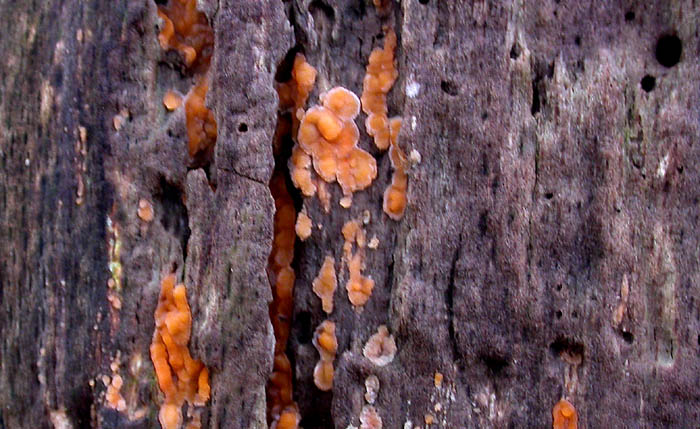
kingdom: Fungi
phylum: Basidiomycota
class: Agaricomycetes
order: Russulales
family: Peniophoraceae
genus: Peniophora
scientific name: Peniophora incarnata
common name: laksefarvet voksskind
